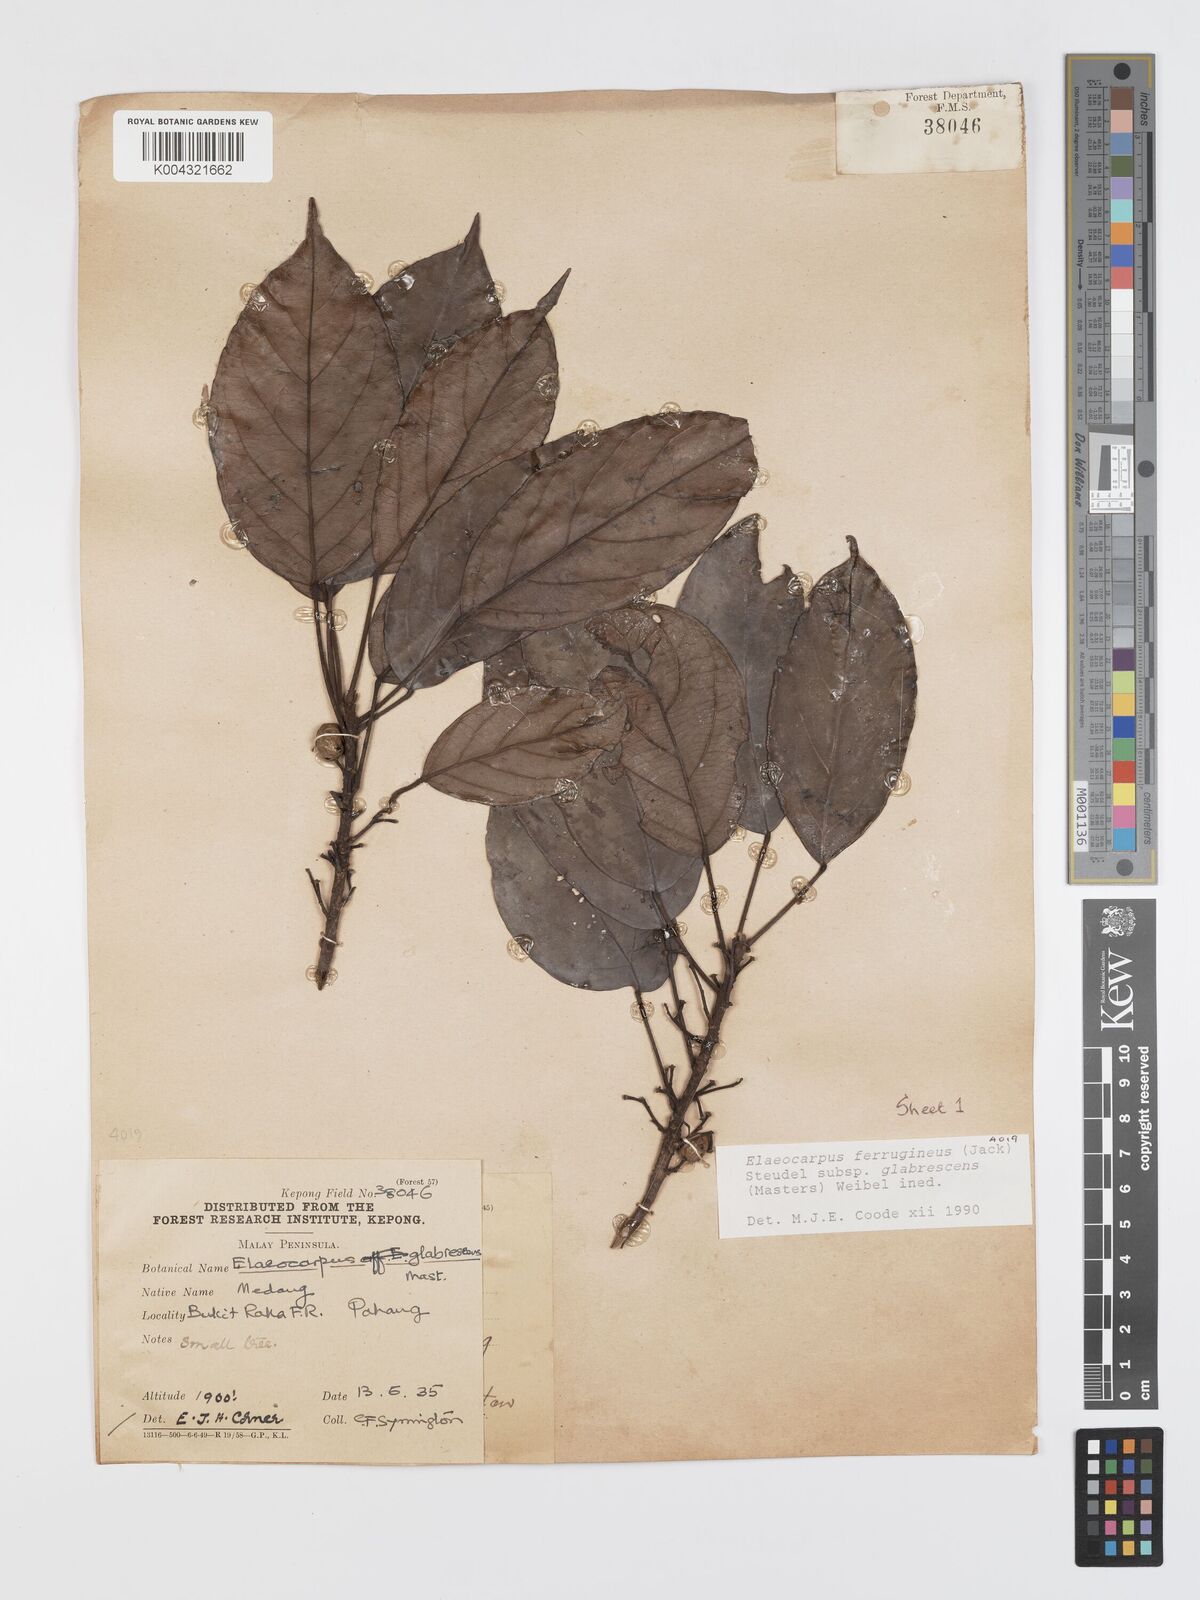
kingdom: Plantae
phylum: Tracheophyta
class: Magnoliopsida
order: Oxalidales
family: Elaeocarpaceae
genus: Elaeocarpus
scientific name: Elaeocarpus ferrugineus
